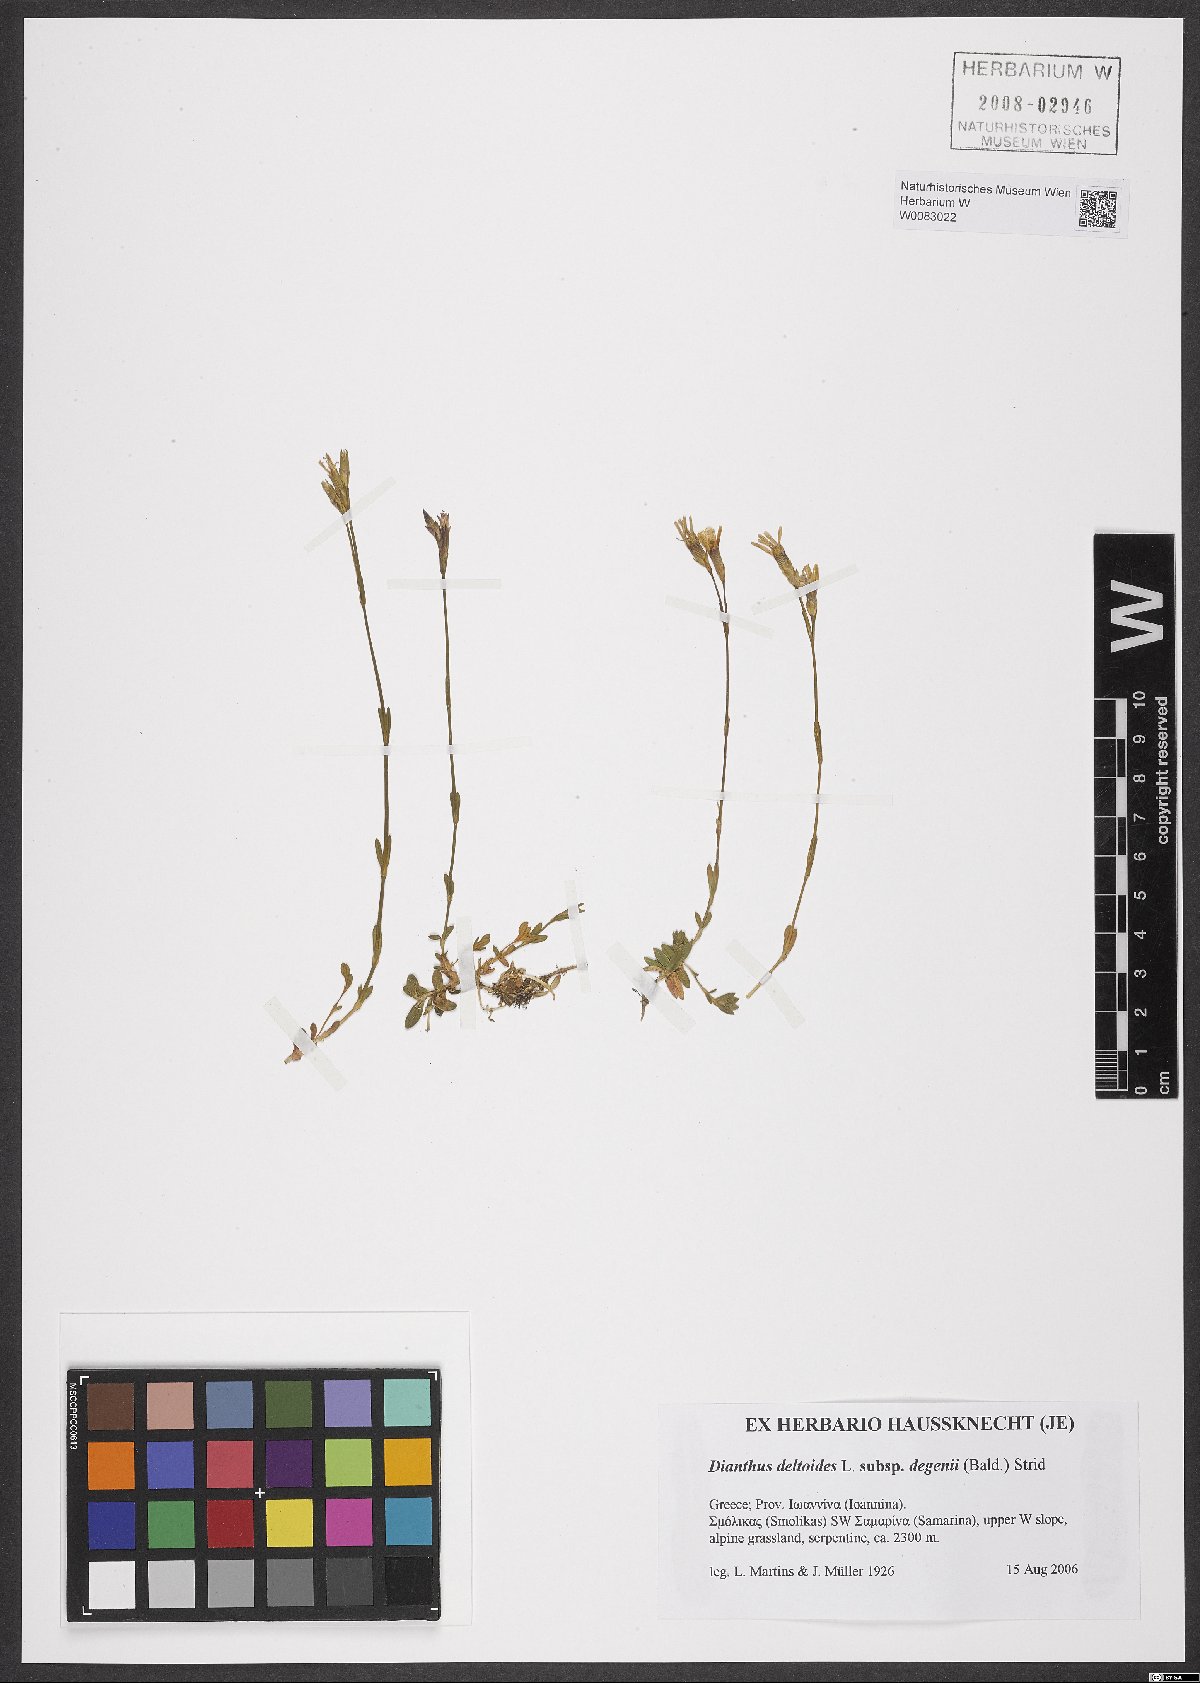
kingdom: Plantae
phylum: Tracheophyta
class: Magnoliopsida
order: Caryophyllales
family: Caryophyllaceae
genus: Dianthus
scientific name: Dianthus deltoides
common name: Maiden pink
